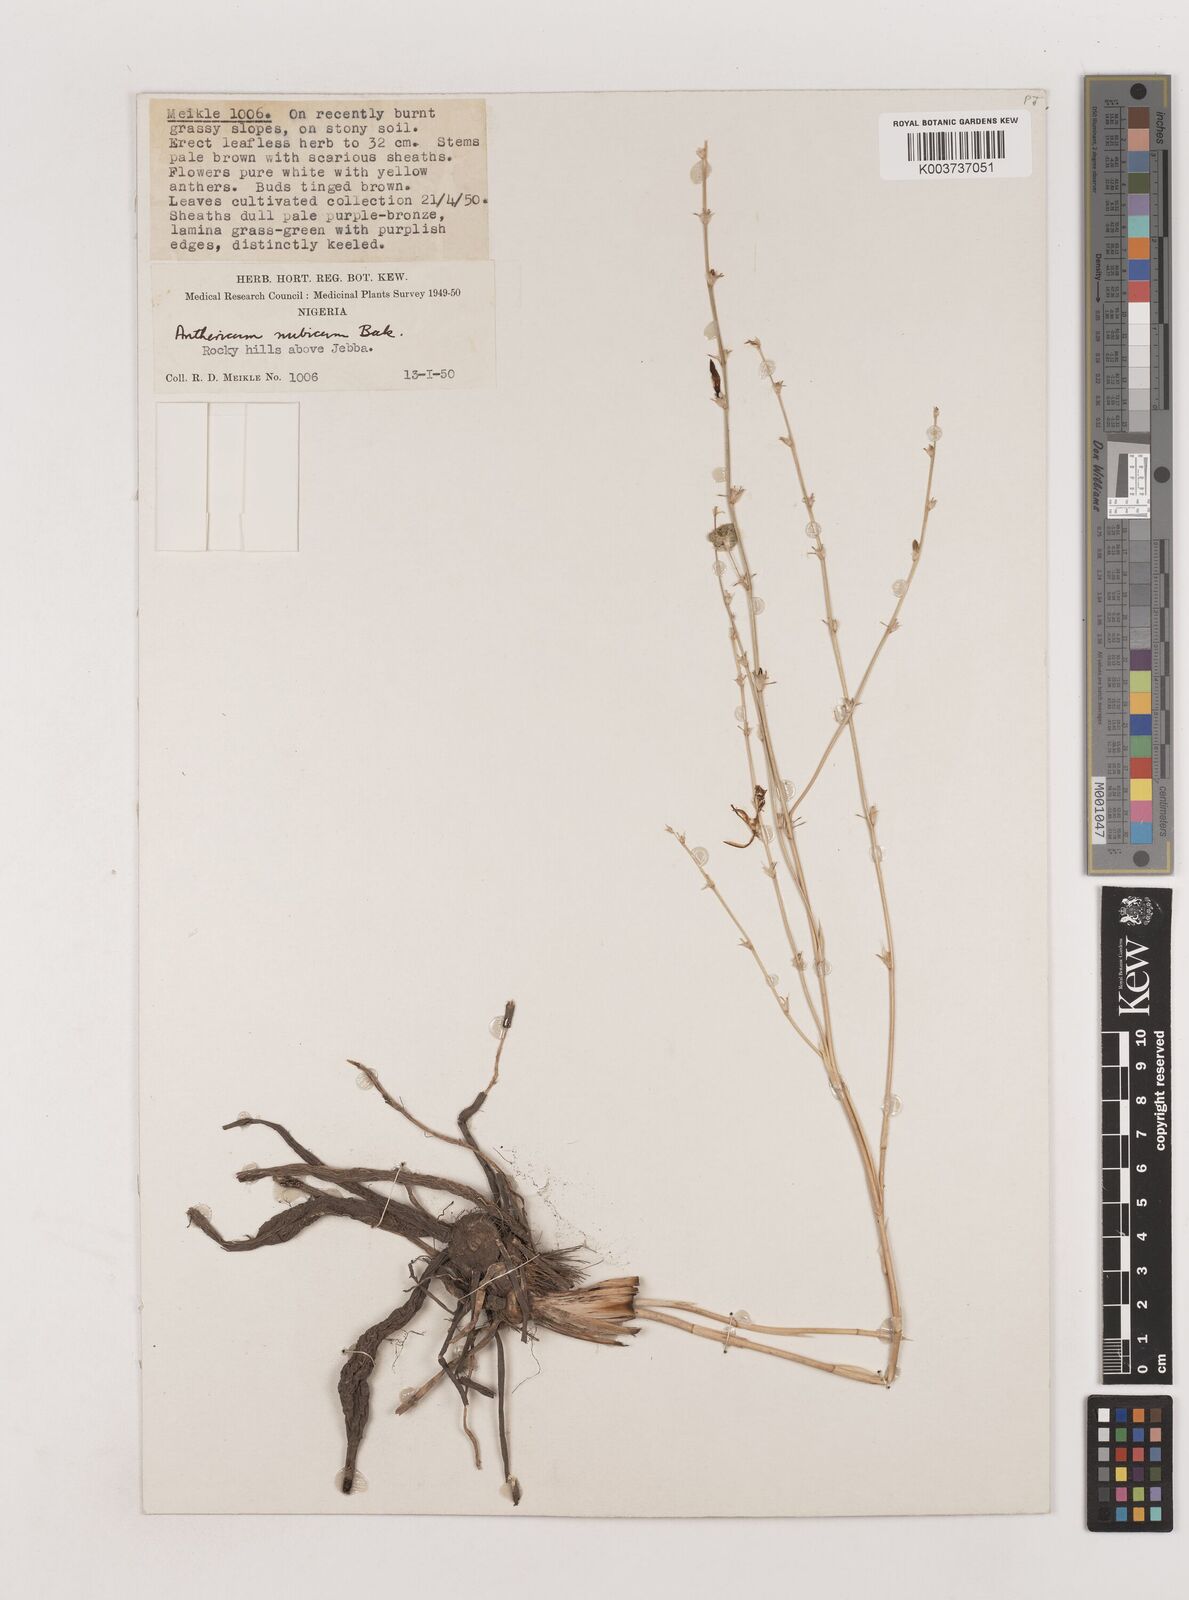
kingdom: Plantae
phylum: Tracheophyta
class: Liliopsida
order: Asparagales
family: Asparagaceae
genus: Chlorophytum
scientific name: Chlorophytum nubicum
